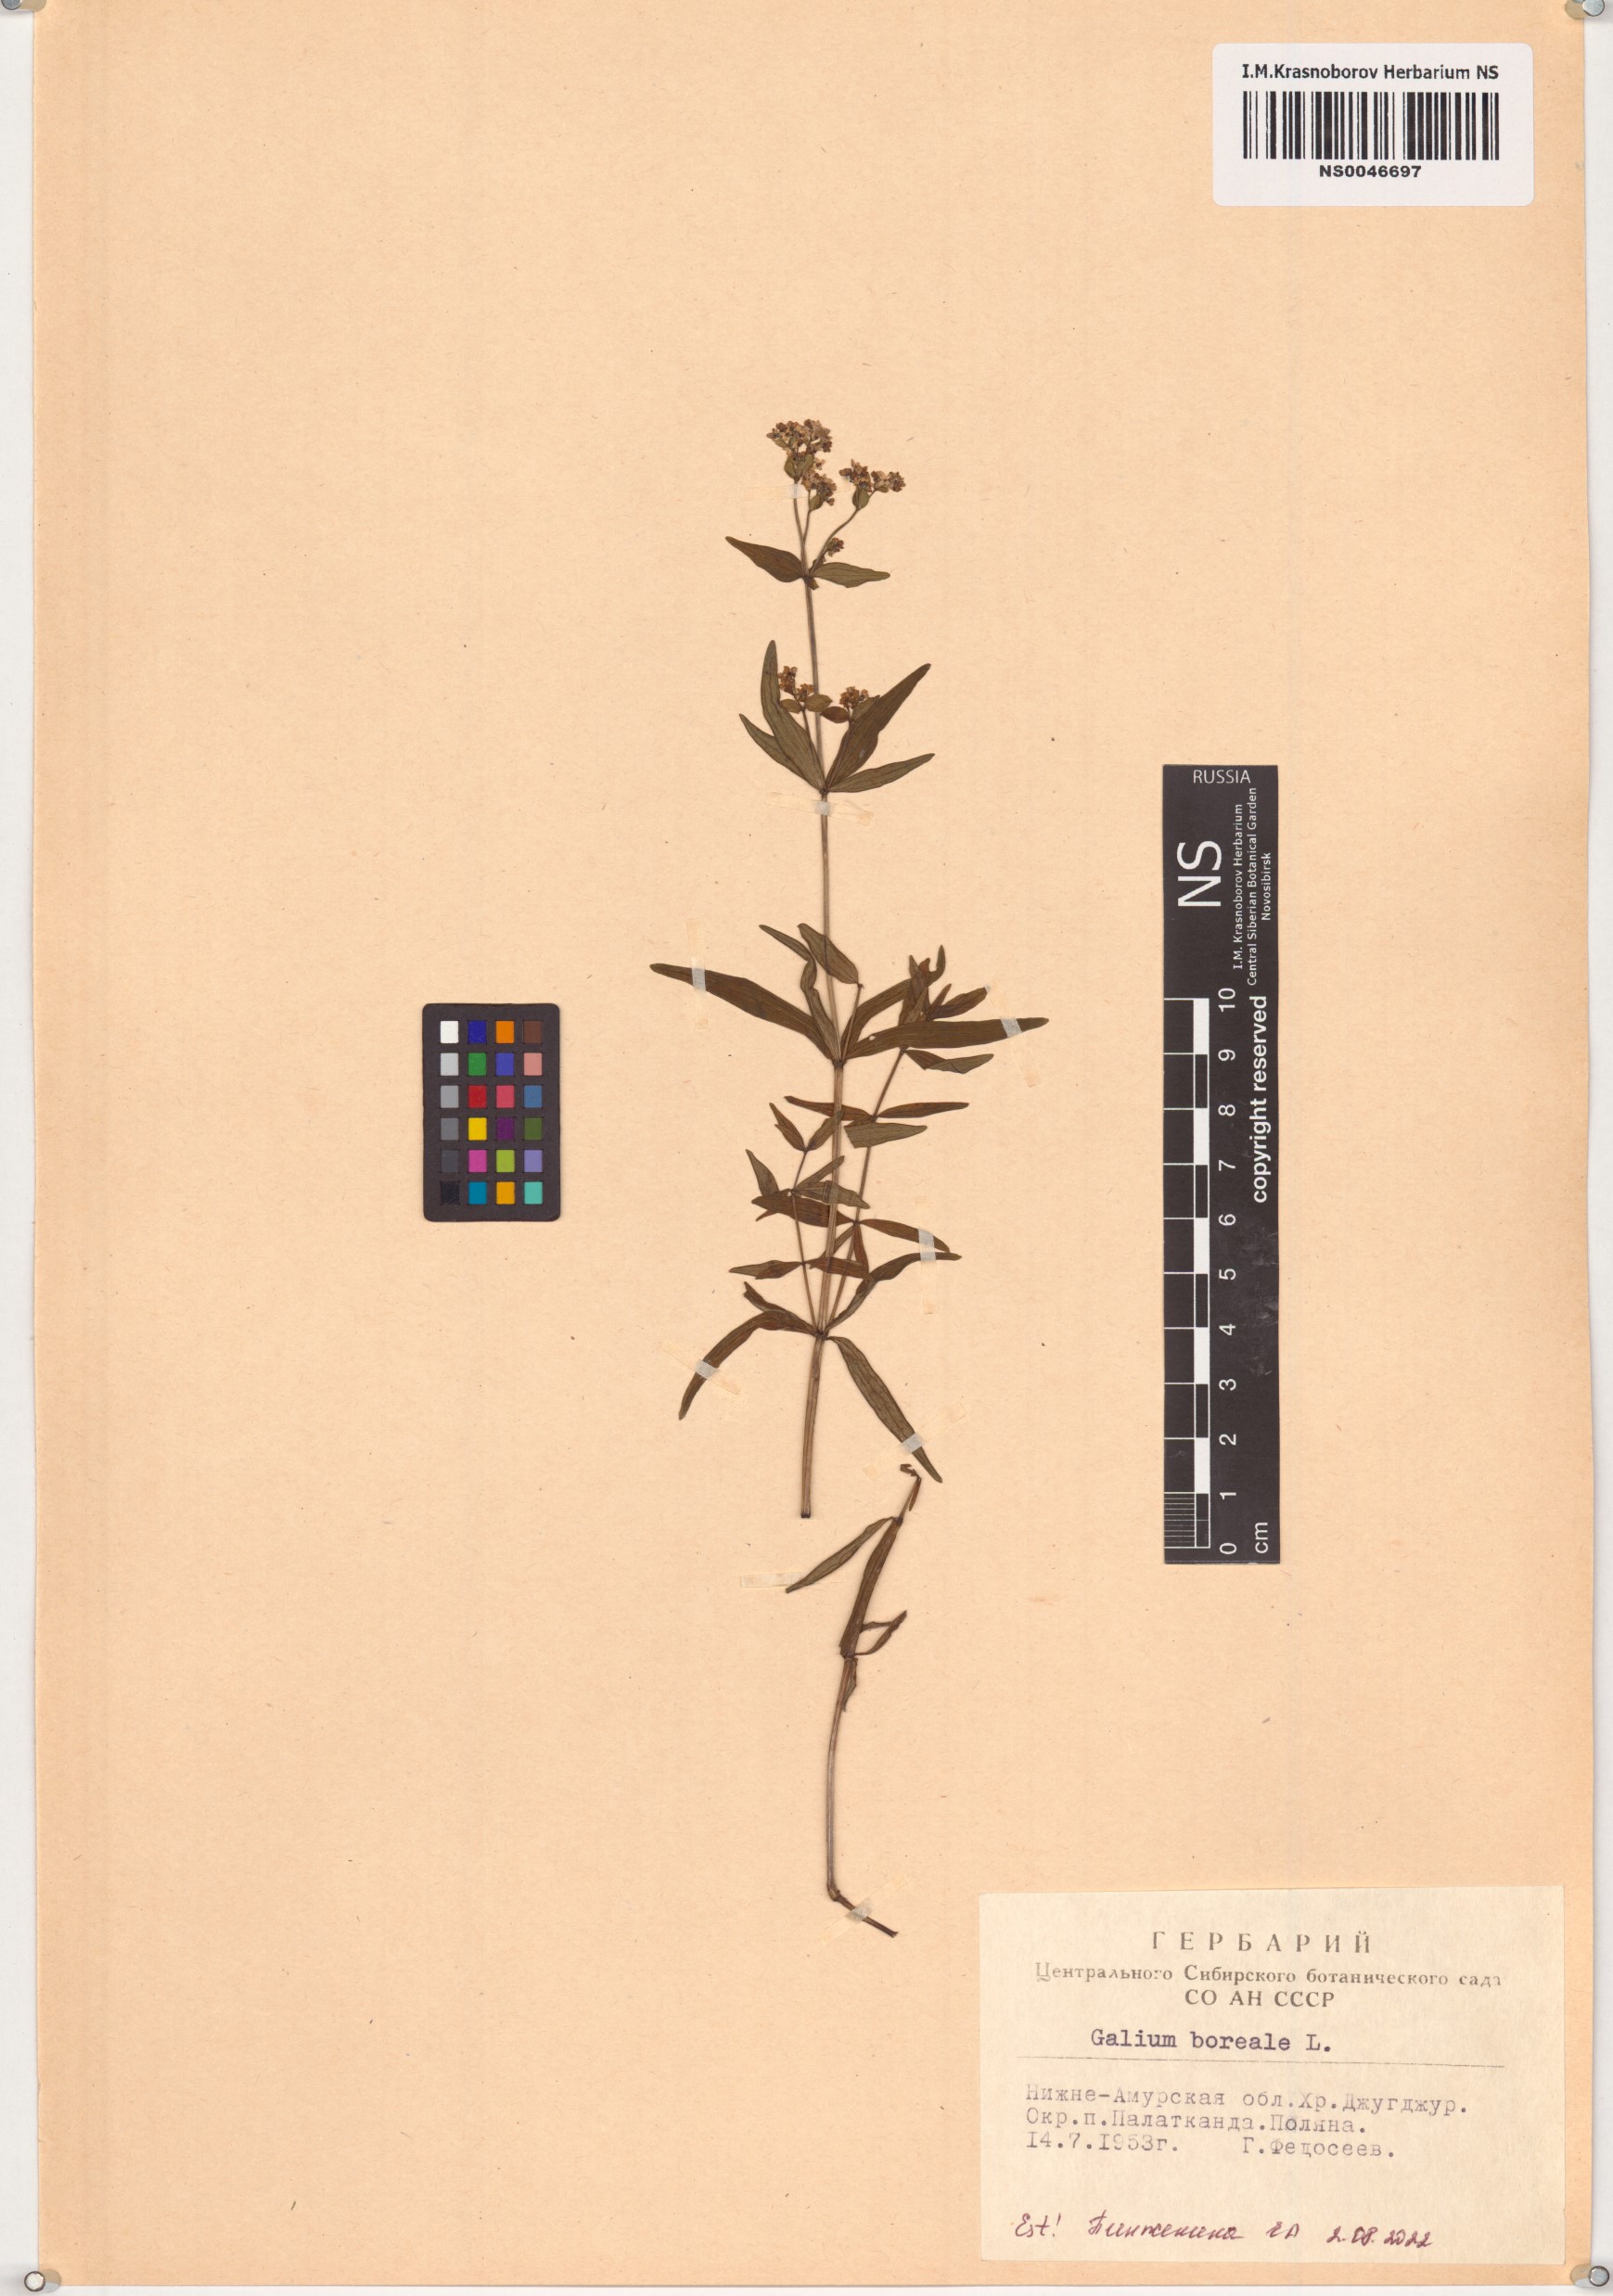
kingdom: Plantae
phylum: Tracheophyta
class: Magnoliopsida
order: Gentianales
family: Rubiaceae
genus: Galium
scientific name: Galium boreale
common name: Northern bedstraw
